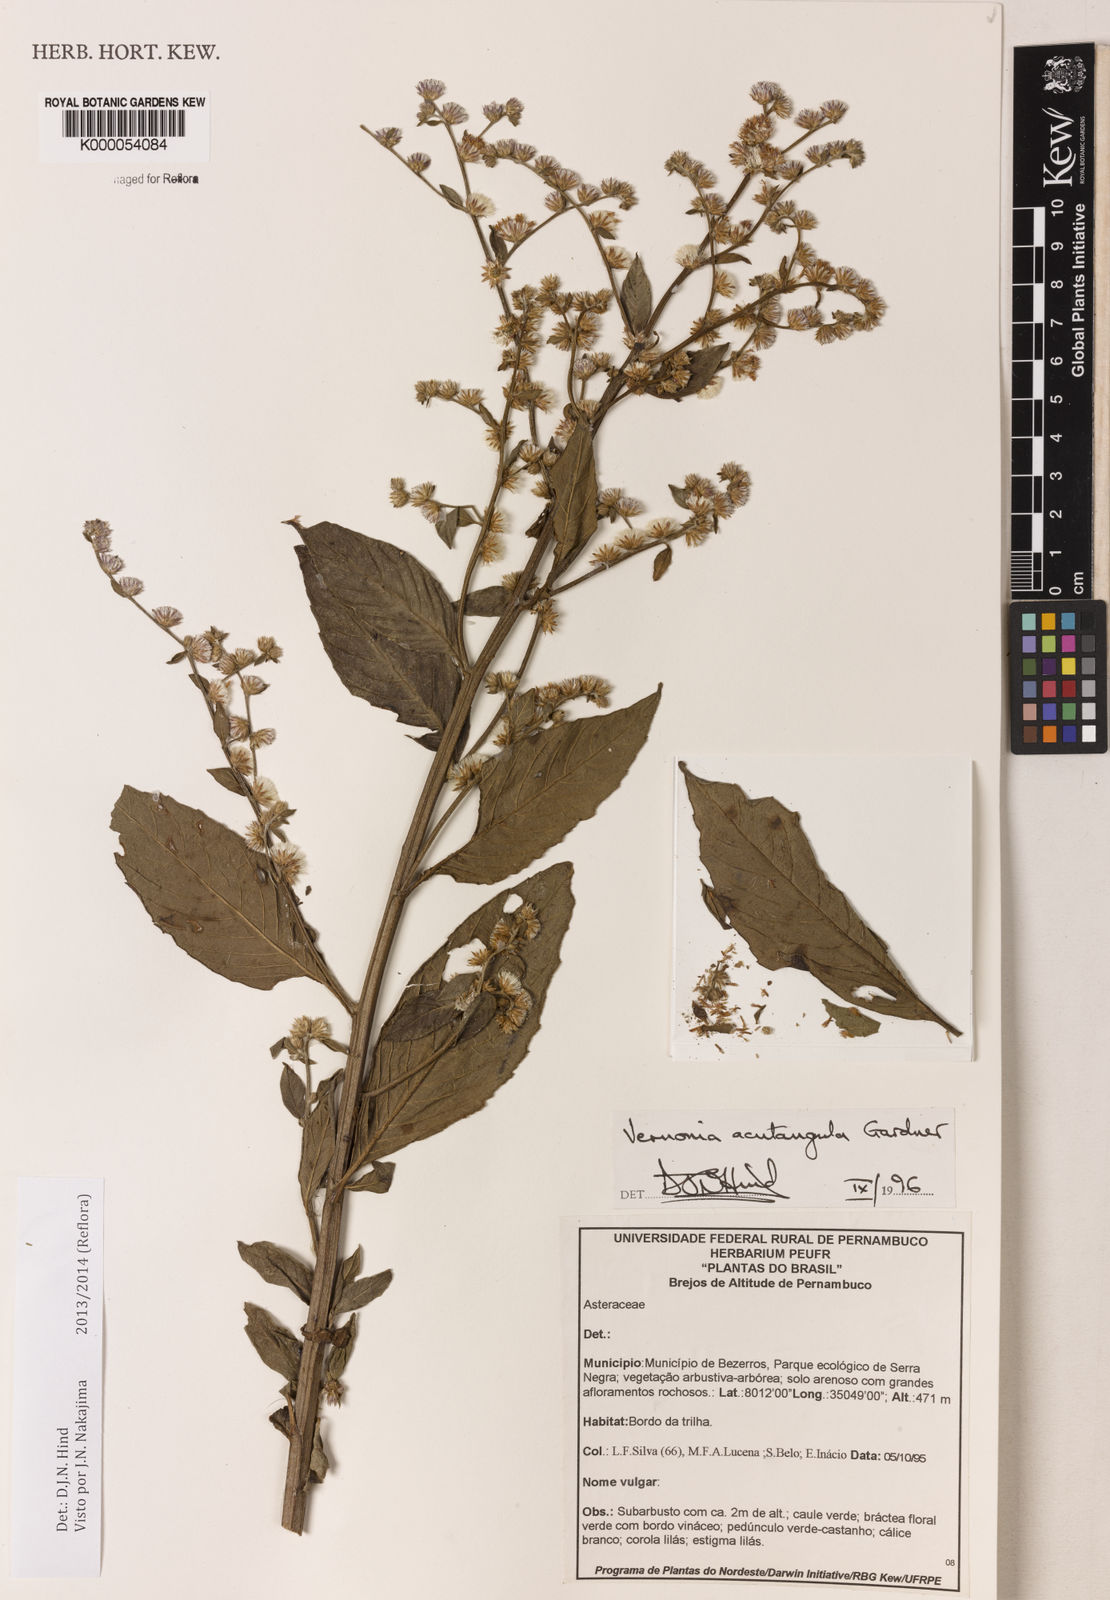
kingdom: Plantae
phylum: Tracheophyta
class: Magnoliopsida
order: Asterales
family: Asteraceae
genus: Lepidaploa
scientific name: Lepidaploa acutangula
